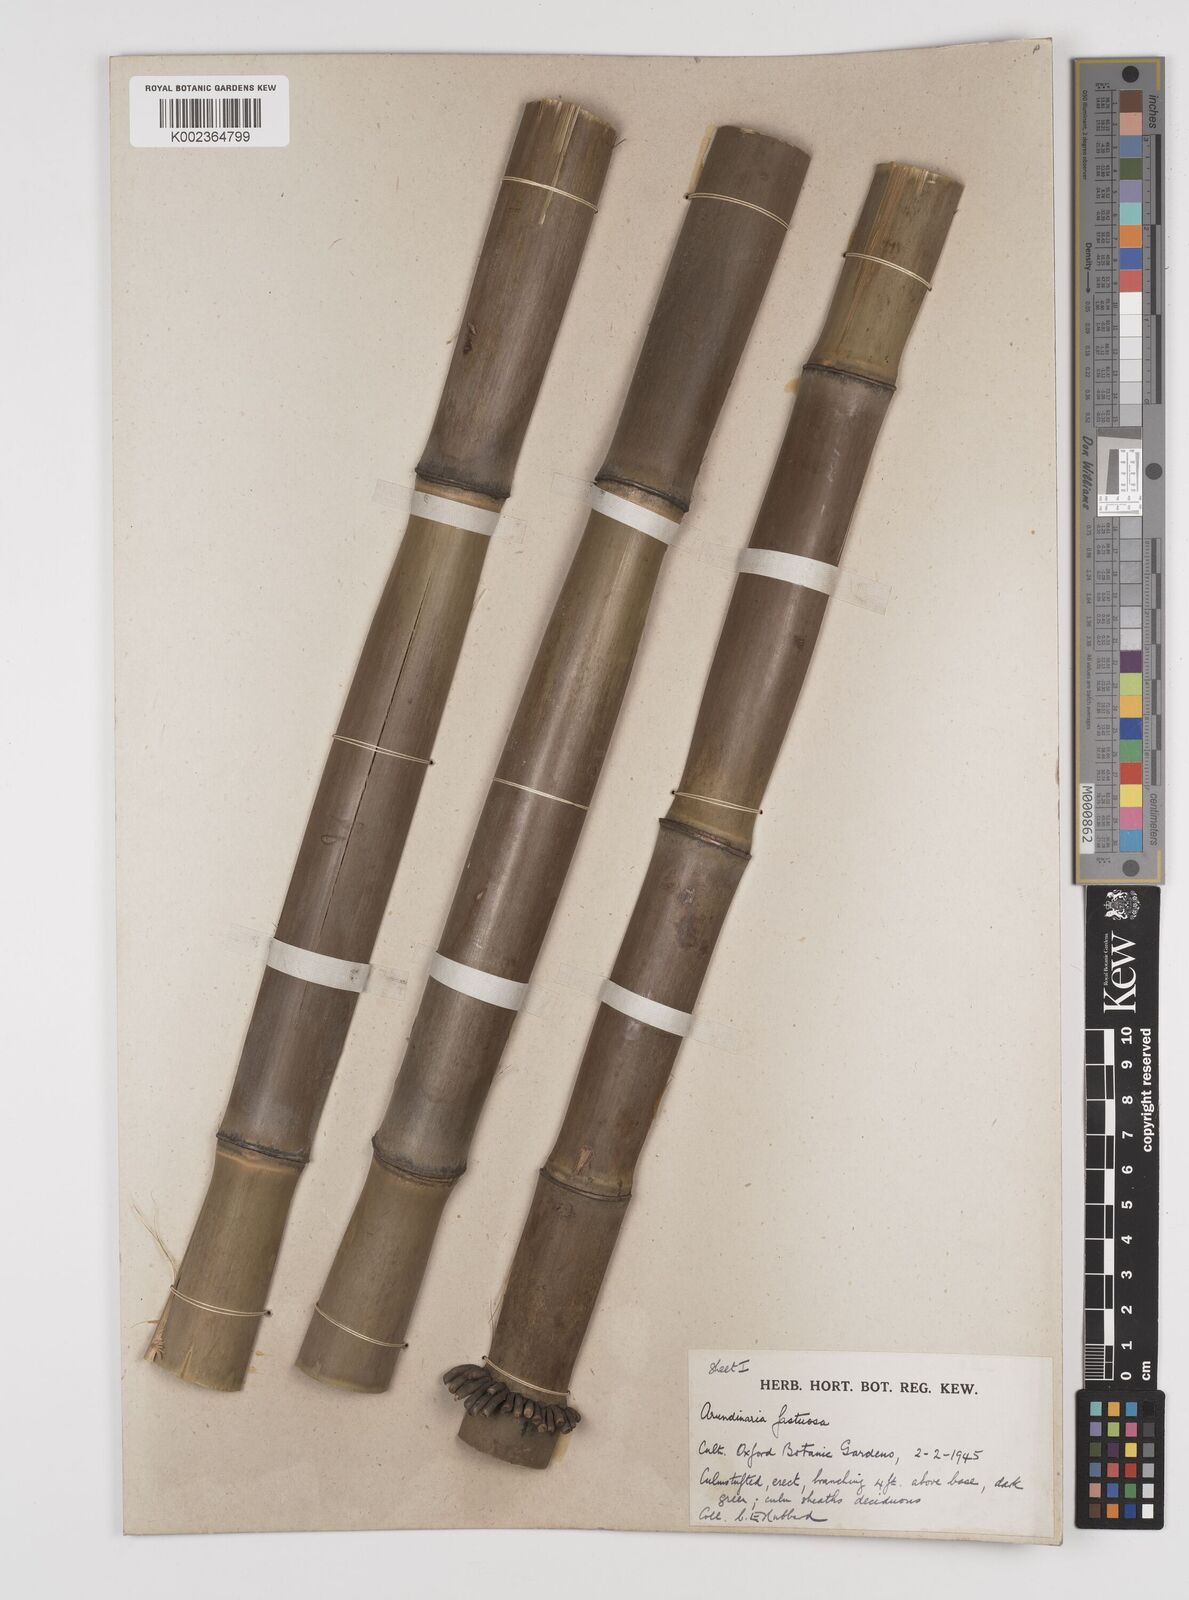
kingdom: Plantae
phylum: Tracheophyta
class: Liliopsida
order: Poales
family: Poaceae
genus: Semiarundinaria
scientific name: Semiarundinaria
